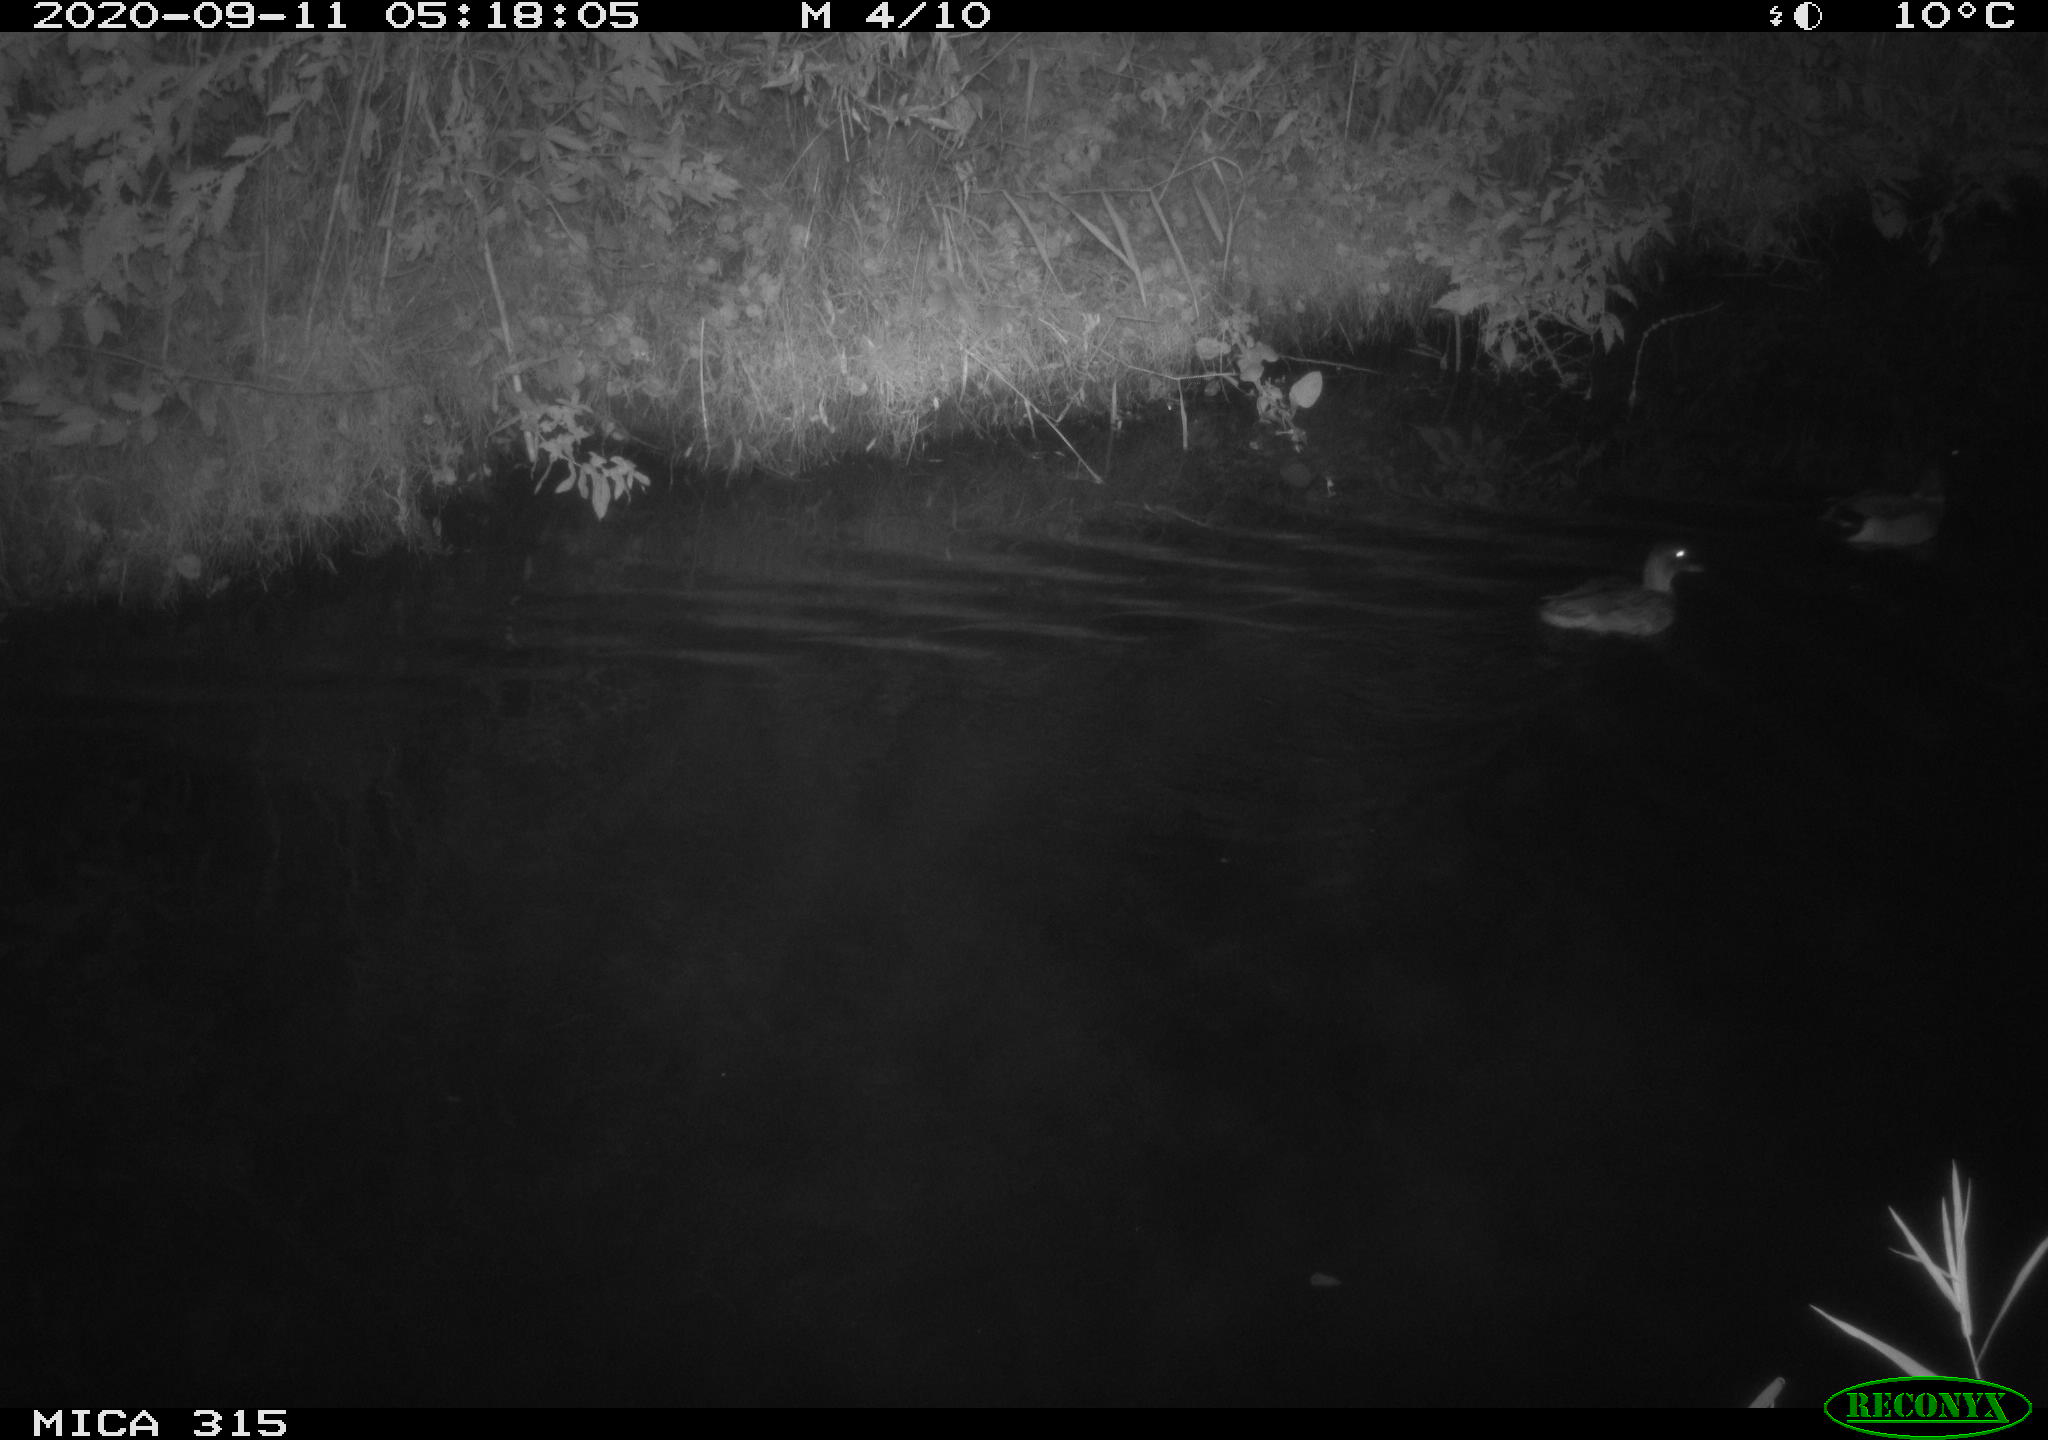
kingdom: Animalia
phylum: Chordata
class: Aves
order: Anseriformes
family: Anatidae
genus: Anas
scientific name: Anas platyrhynchos
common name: Mallard
